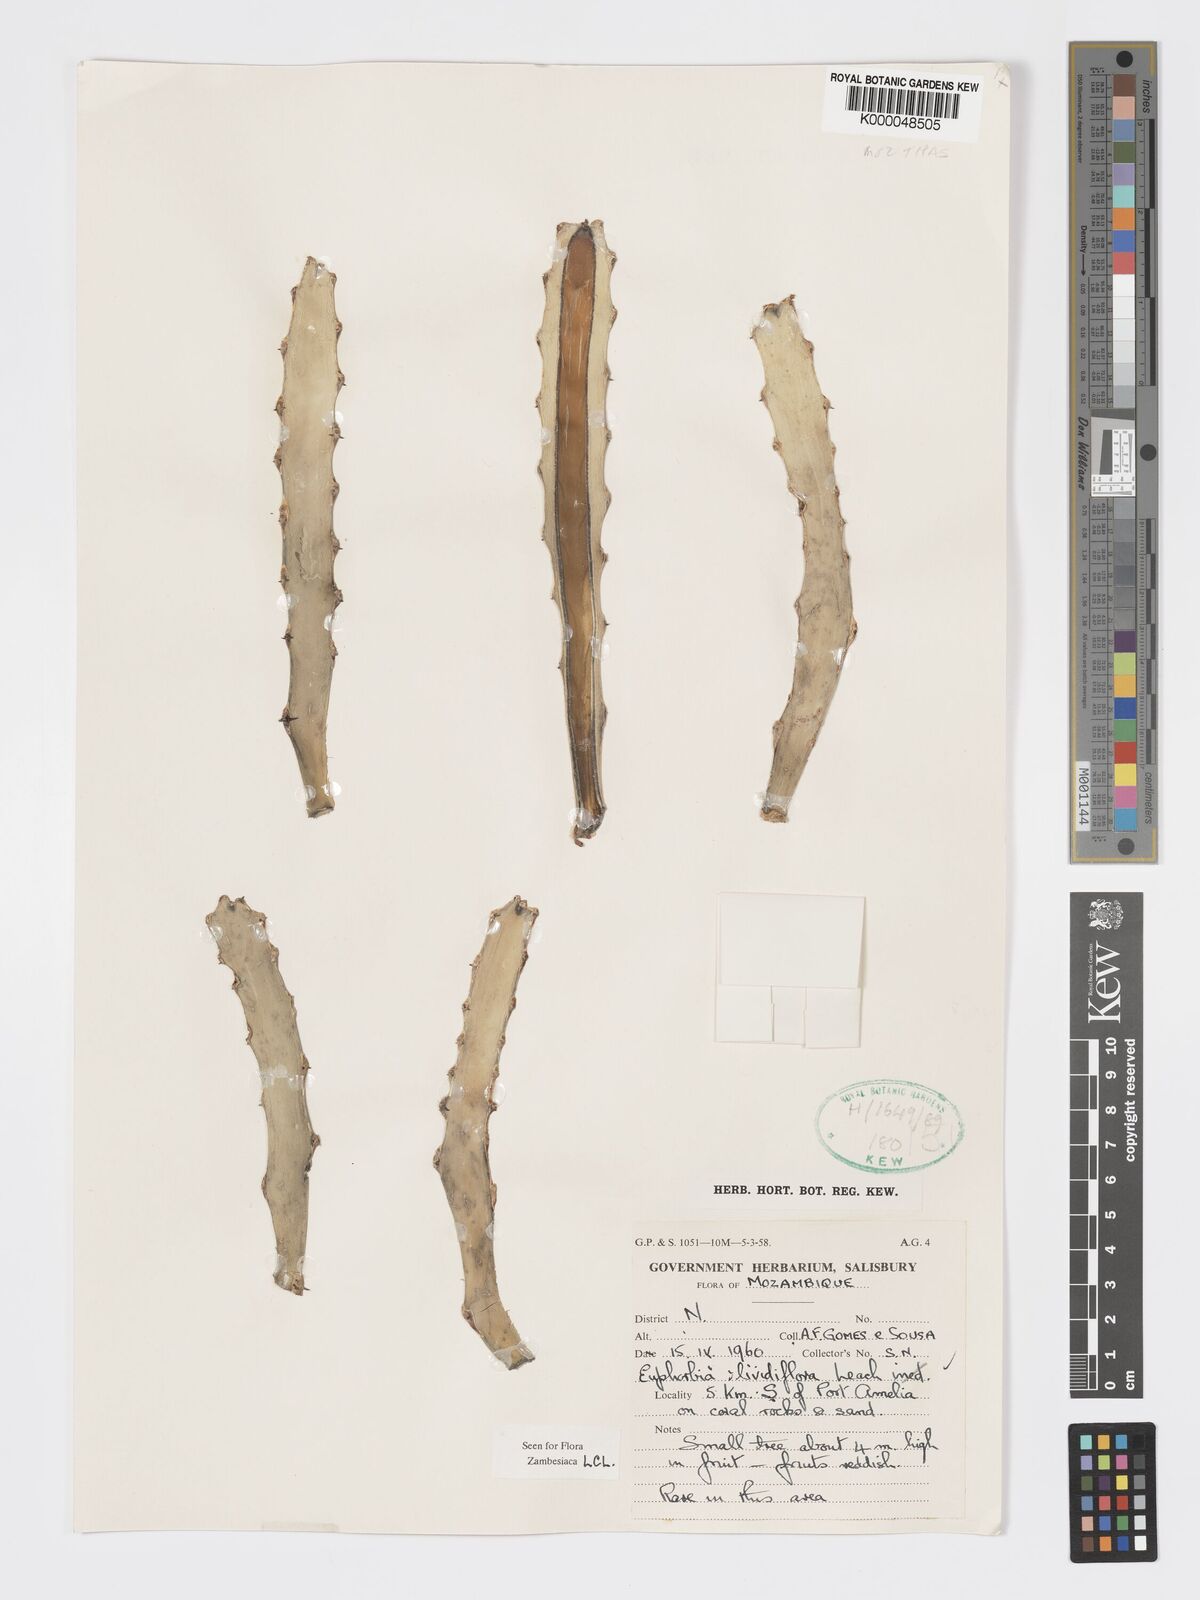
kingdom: Plantae
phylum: Tracheophyta
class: Magnoliopsida
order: Malpighiales
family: Euphorbiaceae
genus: Euphorbia
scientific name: Euphorbia lividiflora
